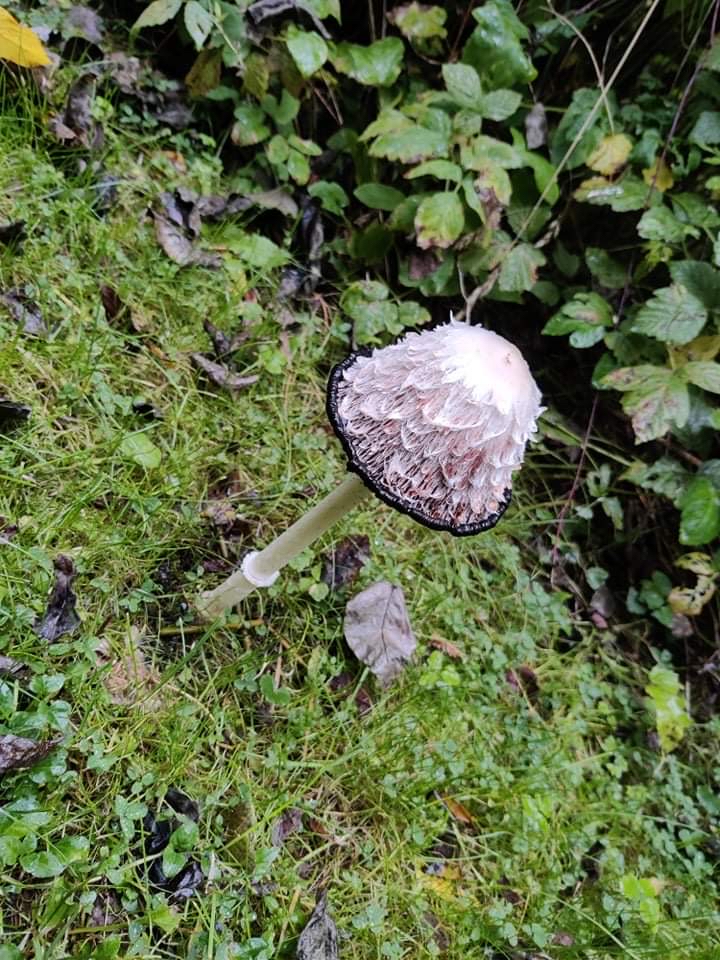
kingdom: Fungi
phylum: Basidiomycota
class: Agaricomycetes
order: Agaricales
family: Agaricaceae
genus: Coprinus
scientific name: Coprinus comatus
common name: stor parykhat
